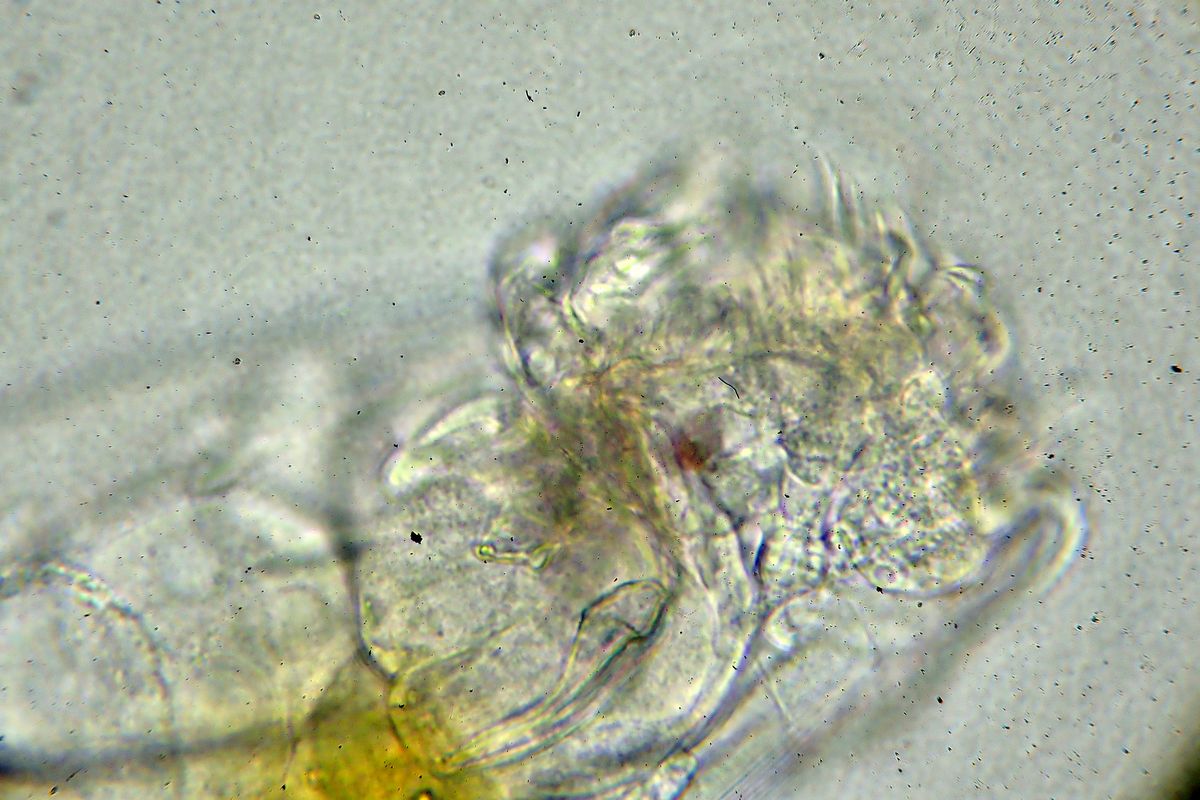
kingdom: Animalia
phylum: Rotifera
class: Eurotatoria
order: Ploima
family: Euchlanidae
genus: Euchlanis
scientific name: Euchlanis dilatata
